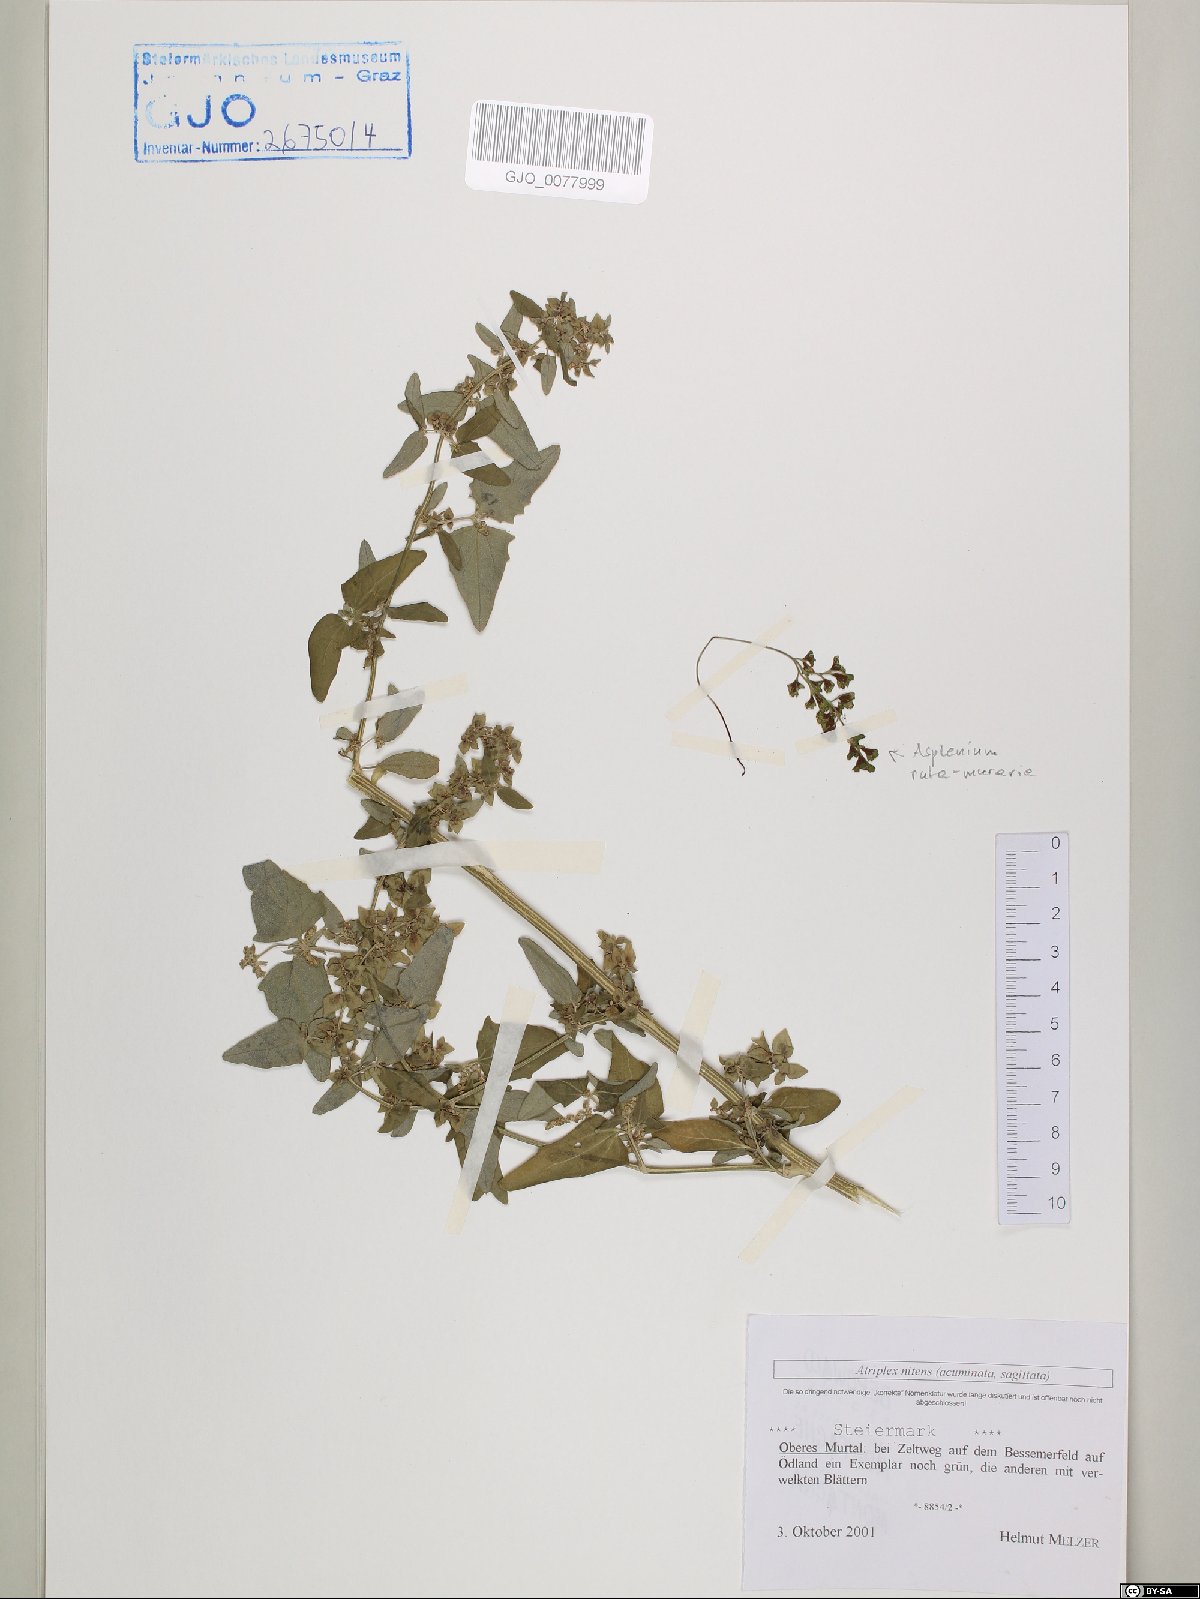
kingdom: Plantae
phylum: Tracheophyta
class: Magnoliopsida
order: Caryophyllales
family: Amaranthaceae
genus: Atriplex
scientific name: Atriplex sagittata
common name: Purple orache
